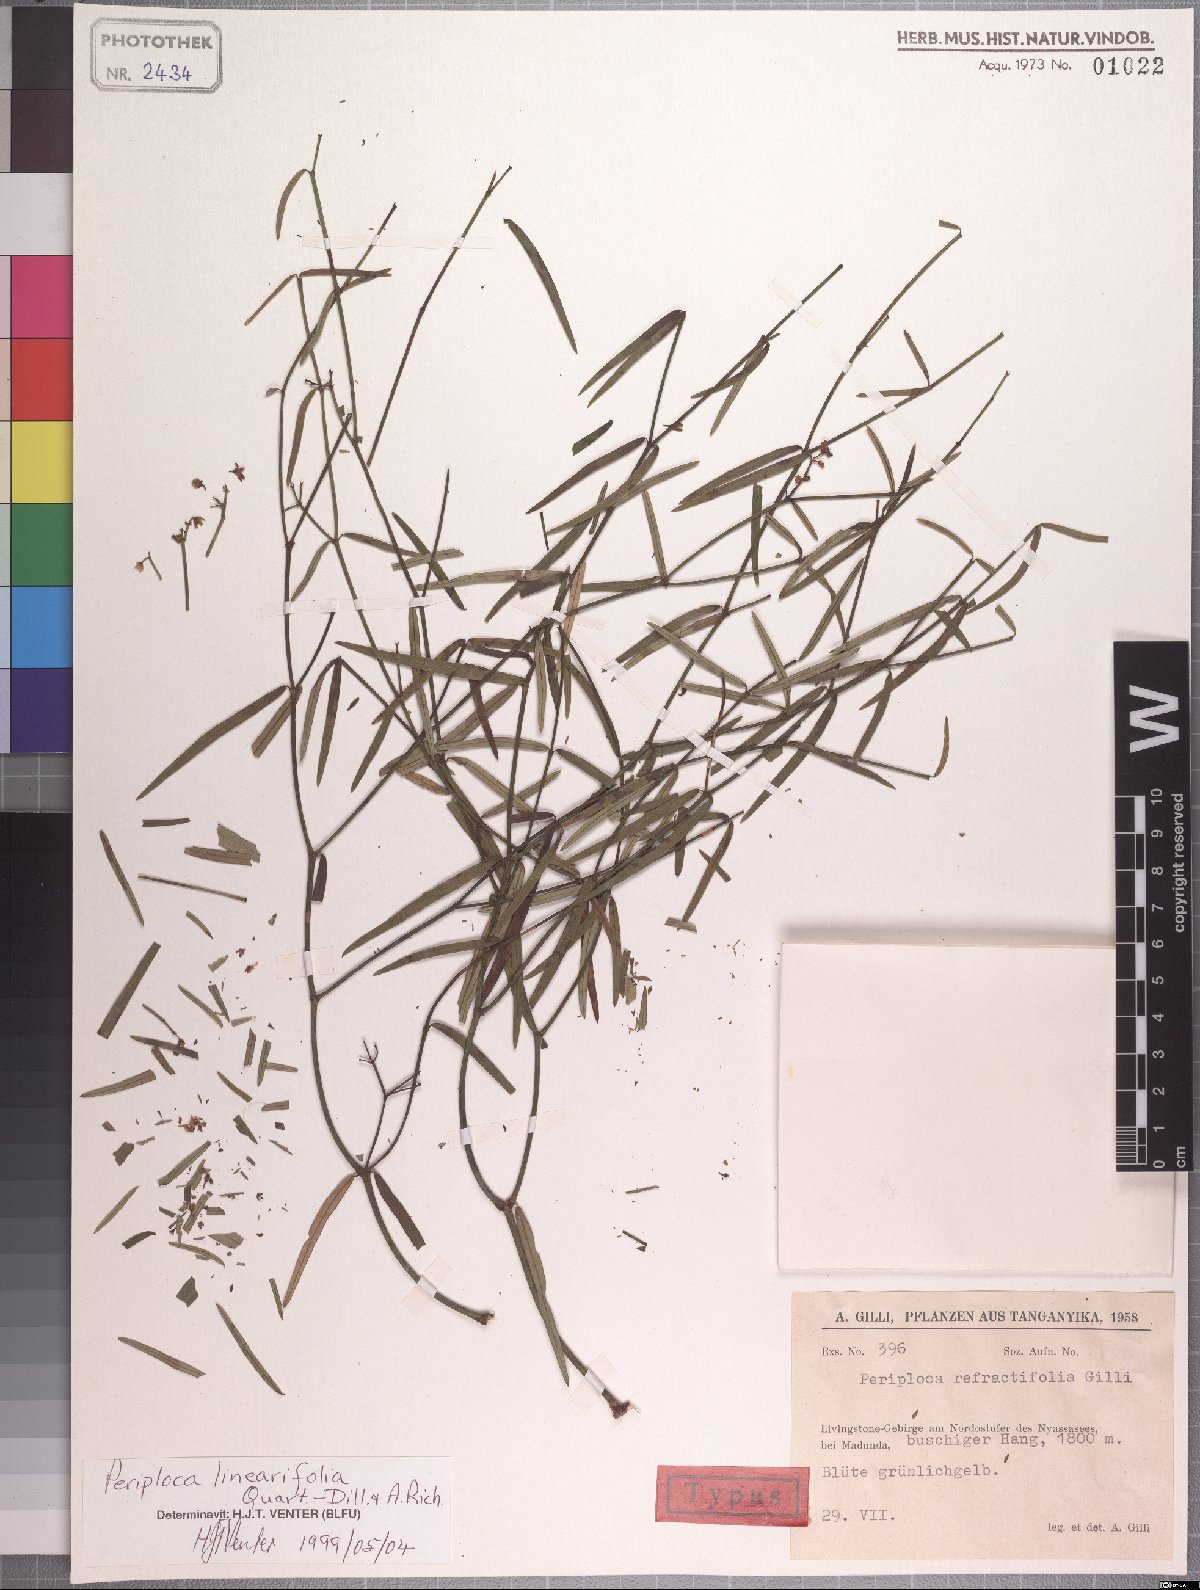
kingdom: Plantae
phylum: Tracheophyta
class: Magnoliopsida
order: Gentianales
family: Apocynaceae
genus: Periploca
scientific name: Periploca linearifolia
